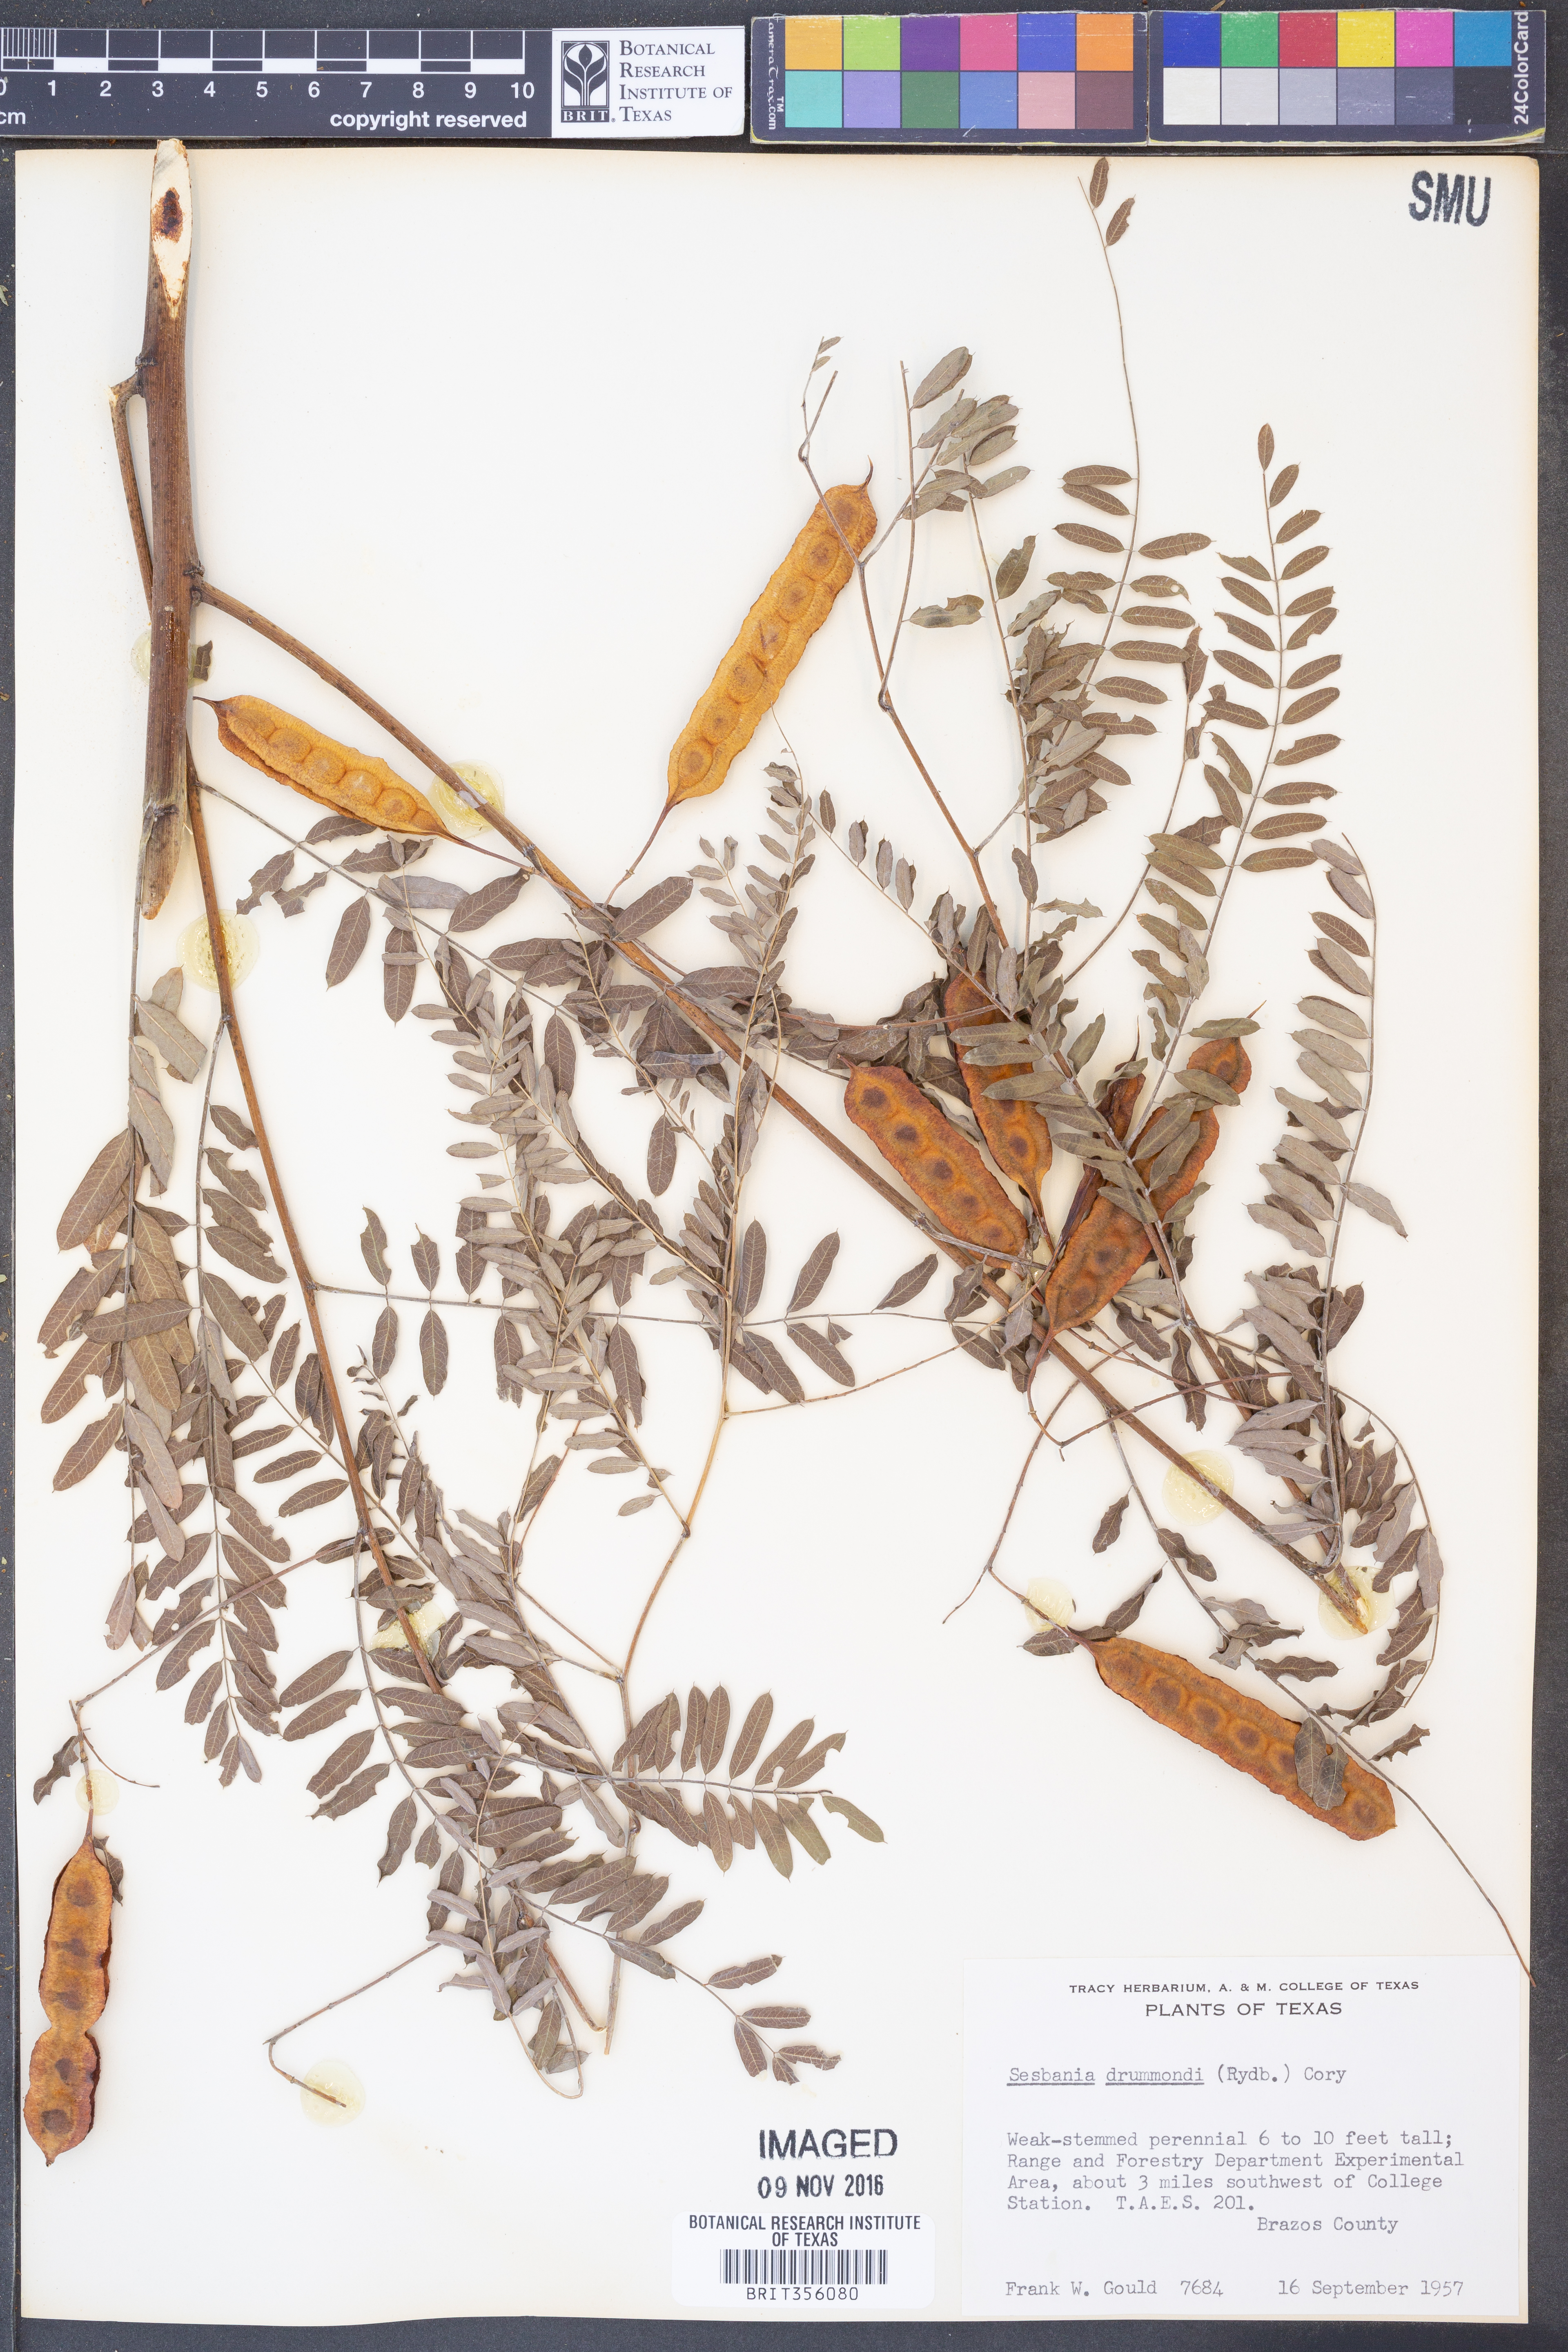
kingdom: Plantae
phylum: Tracheophyta
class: Magnoliopsida
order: Fabales
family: Fabaceae
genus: Sesbania
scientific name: Sesbania drummondii
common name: Poison-bean
